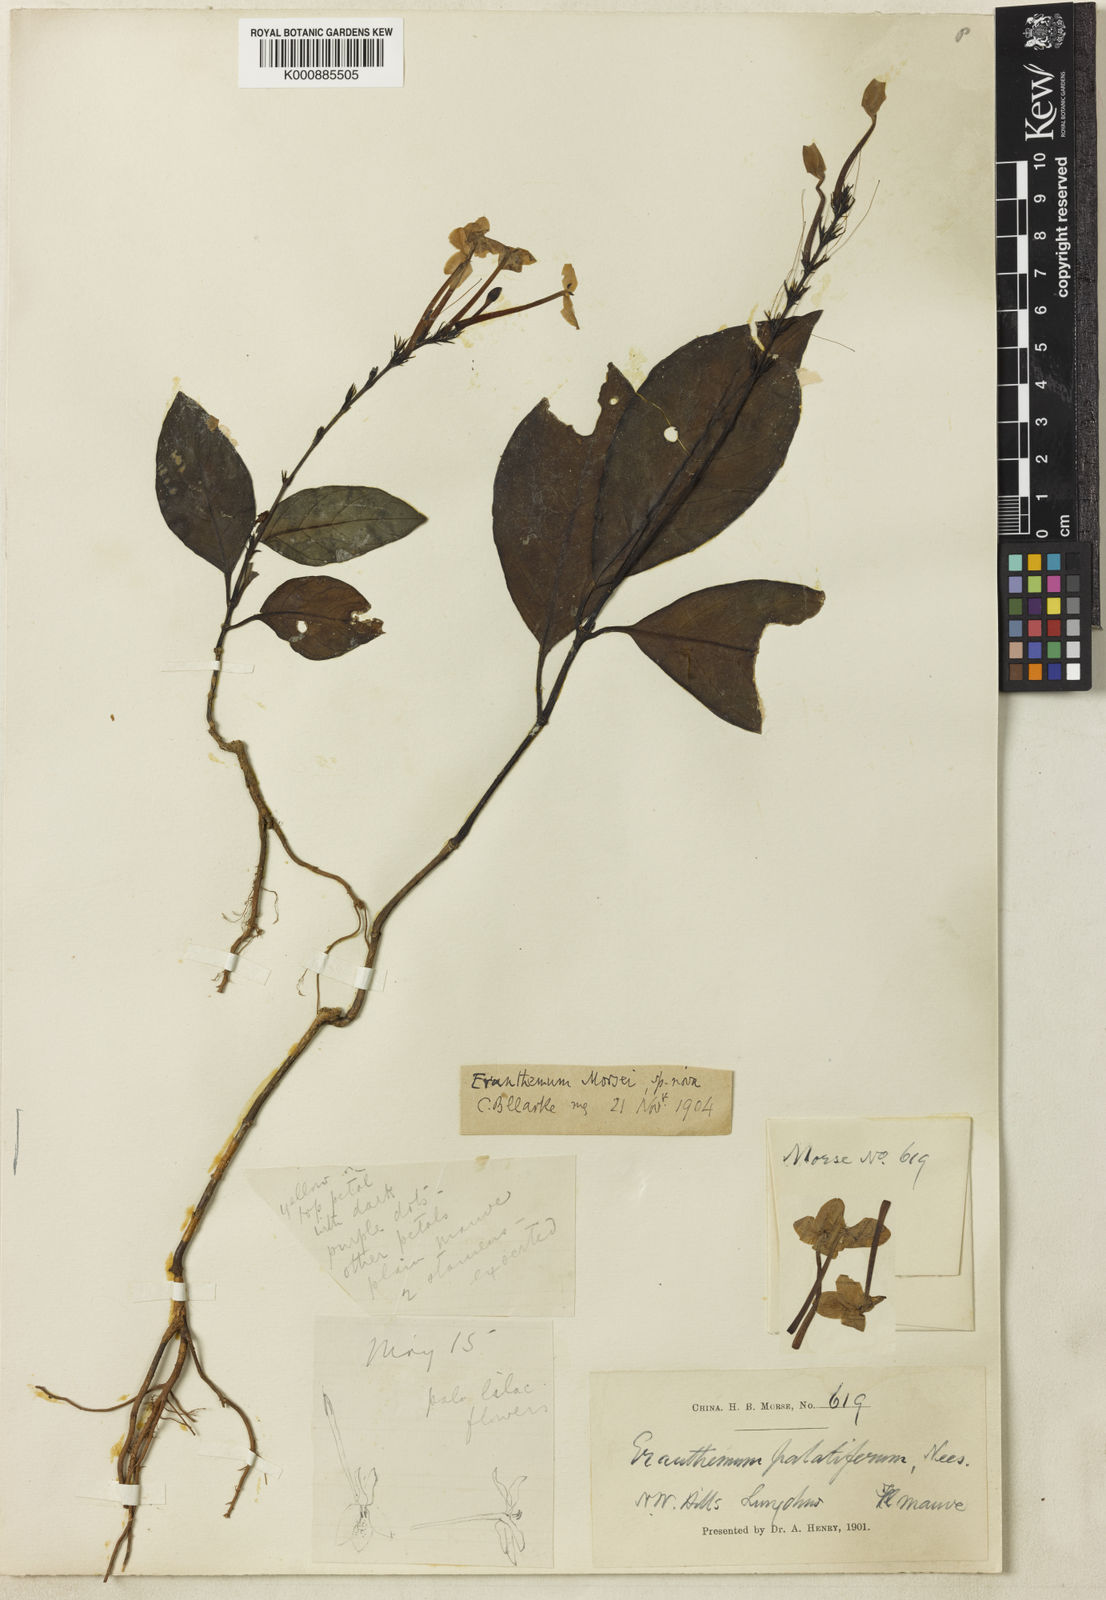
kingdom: Plantae
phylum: Tracheophyta
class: Magnoliopsida
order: Lamiales
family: Acanthaceae
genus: Pseuderanthemum
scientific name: Pseuderanthemum
